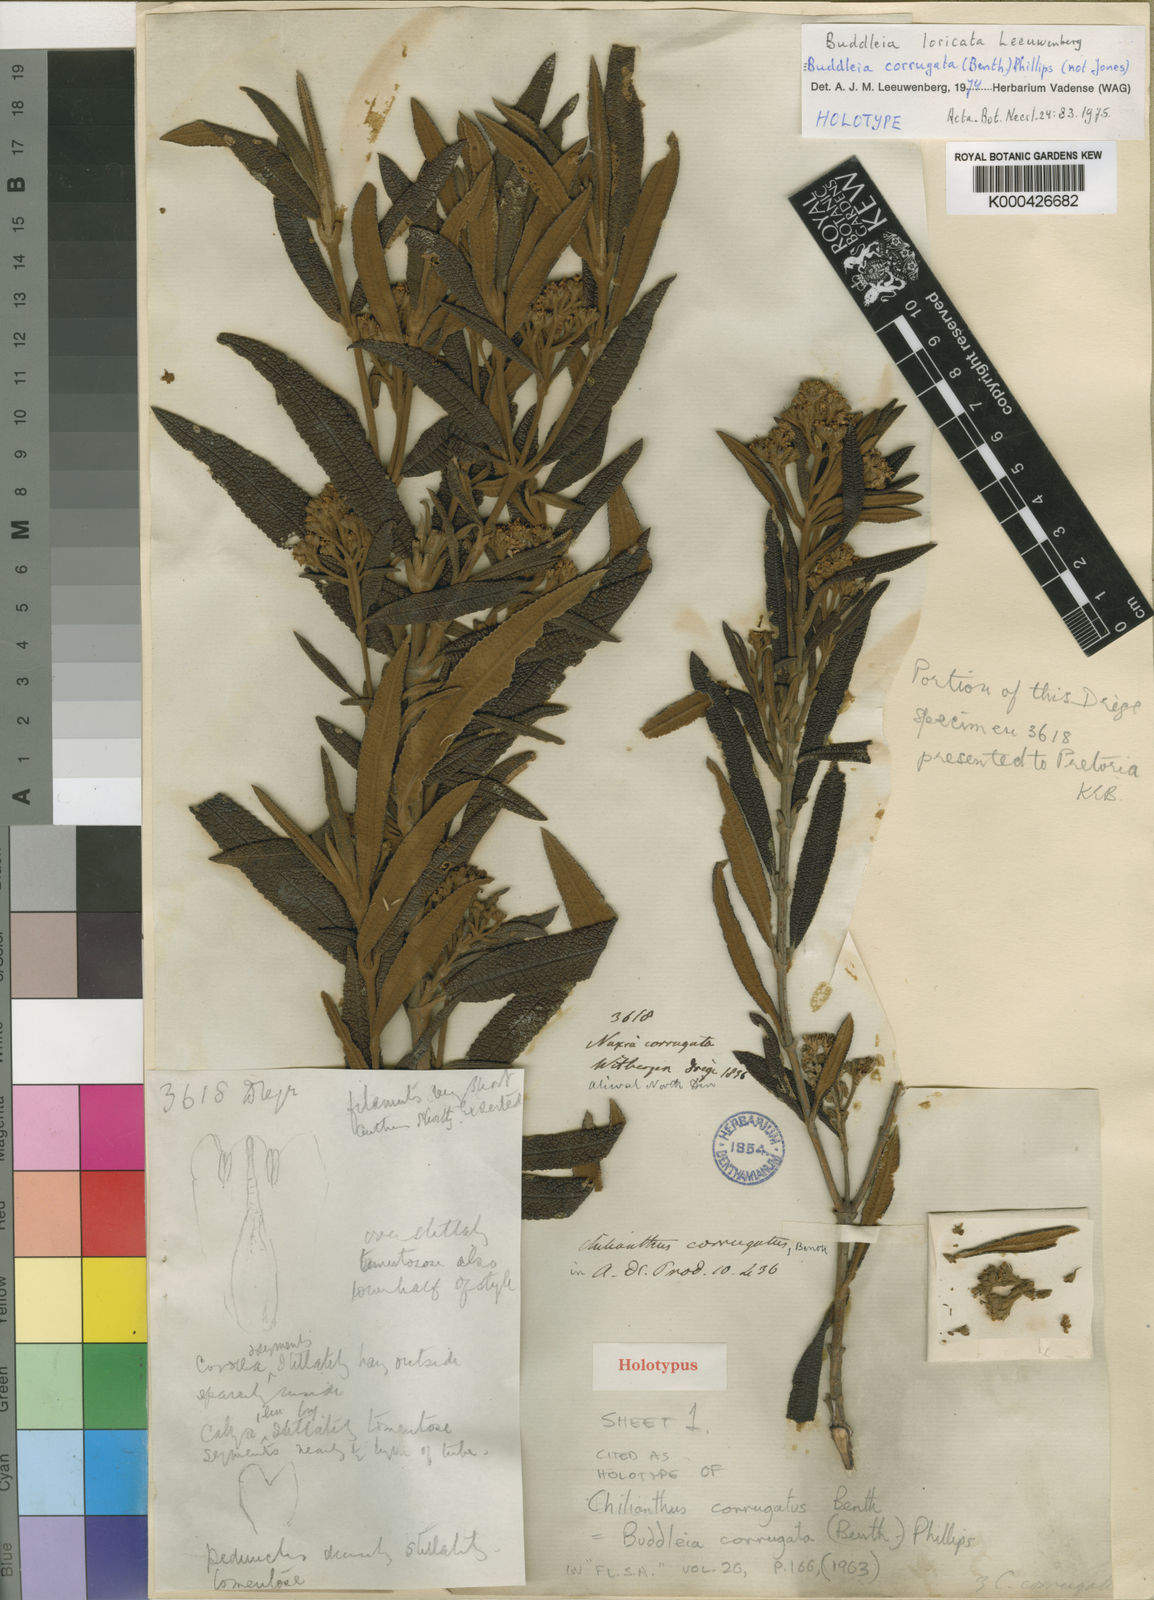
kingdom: Plantae
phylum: Tracheophyta
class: Magnoliopsida
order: Lamiales
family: Scrophulariaceae
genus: Buddleja
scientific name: Buddleja loricata
